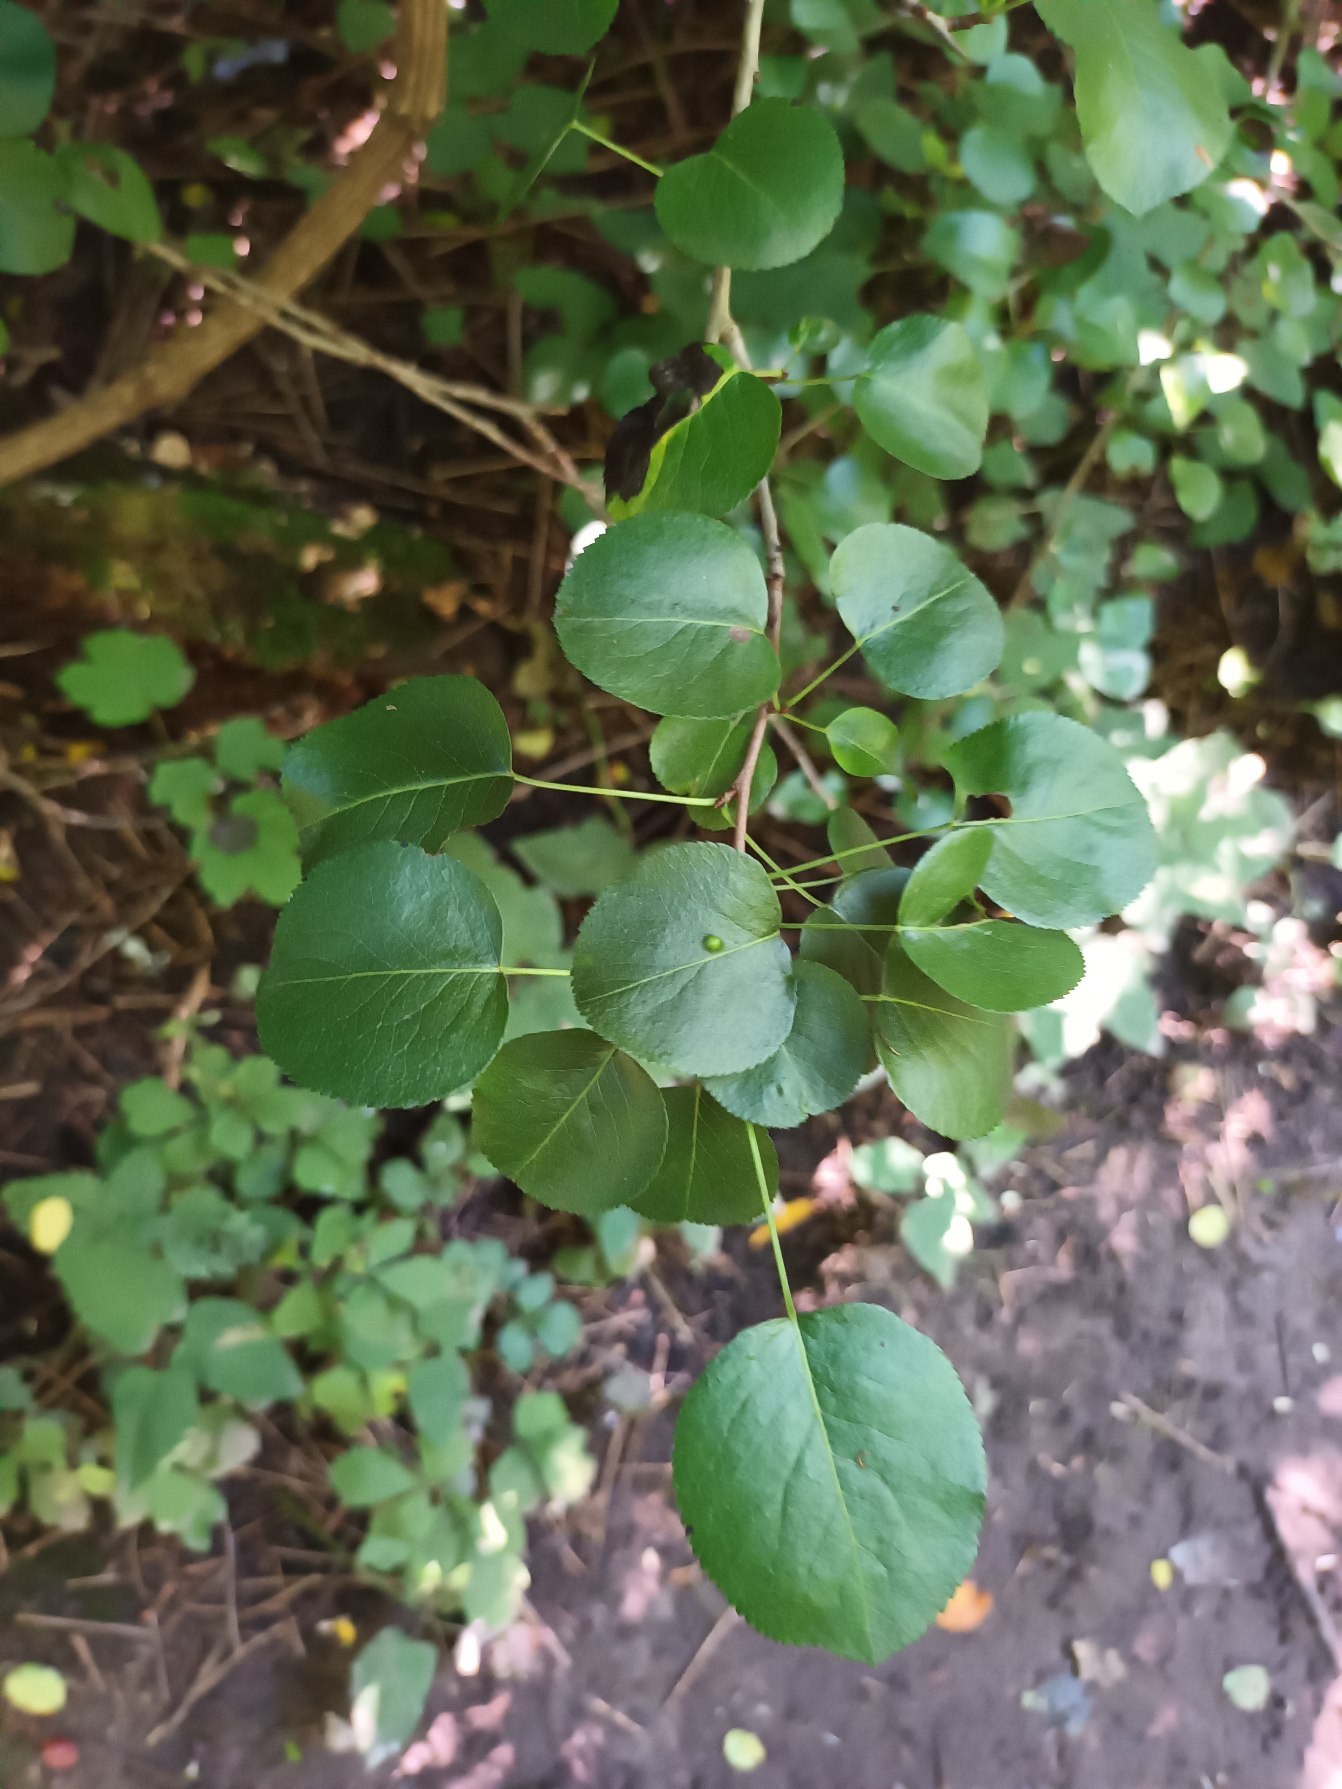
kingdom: Plantae
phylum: Tracheophyta
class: Magnoliopsida
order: Rosales
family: Rosaceae
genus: Prunus
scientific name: Prunus mahaleb
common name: Weichsel
